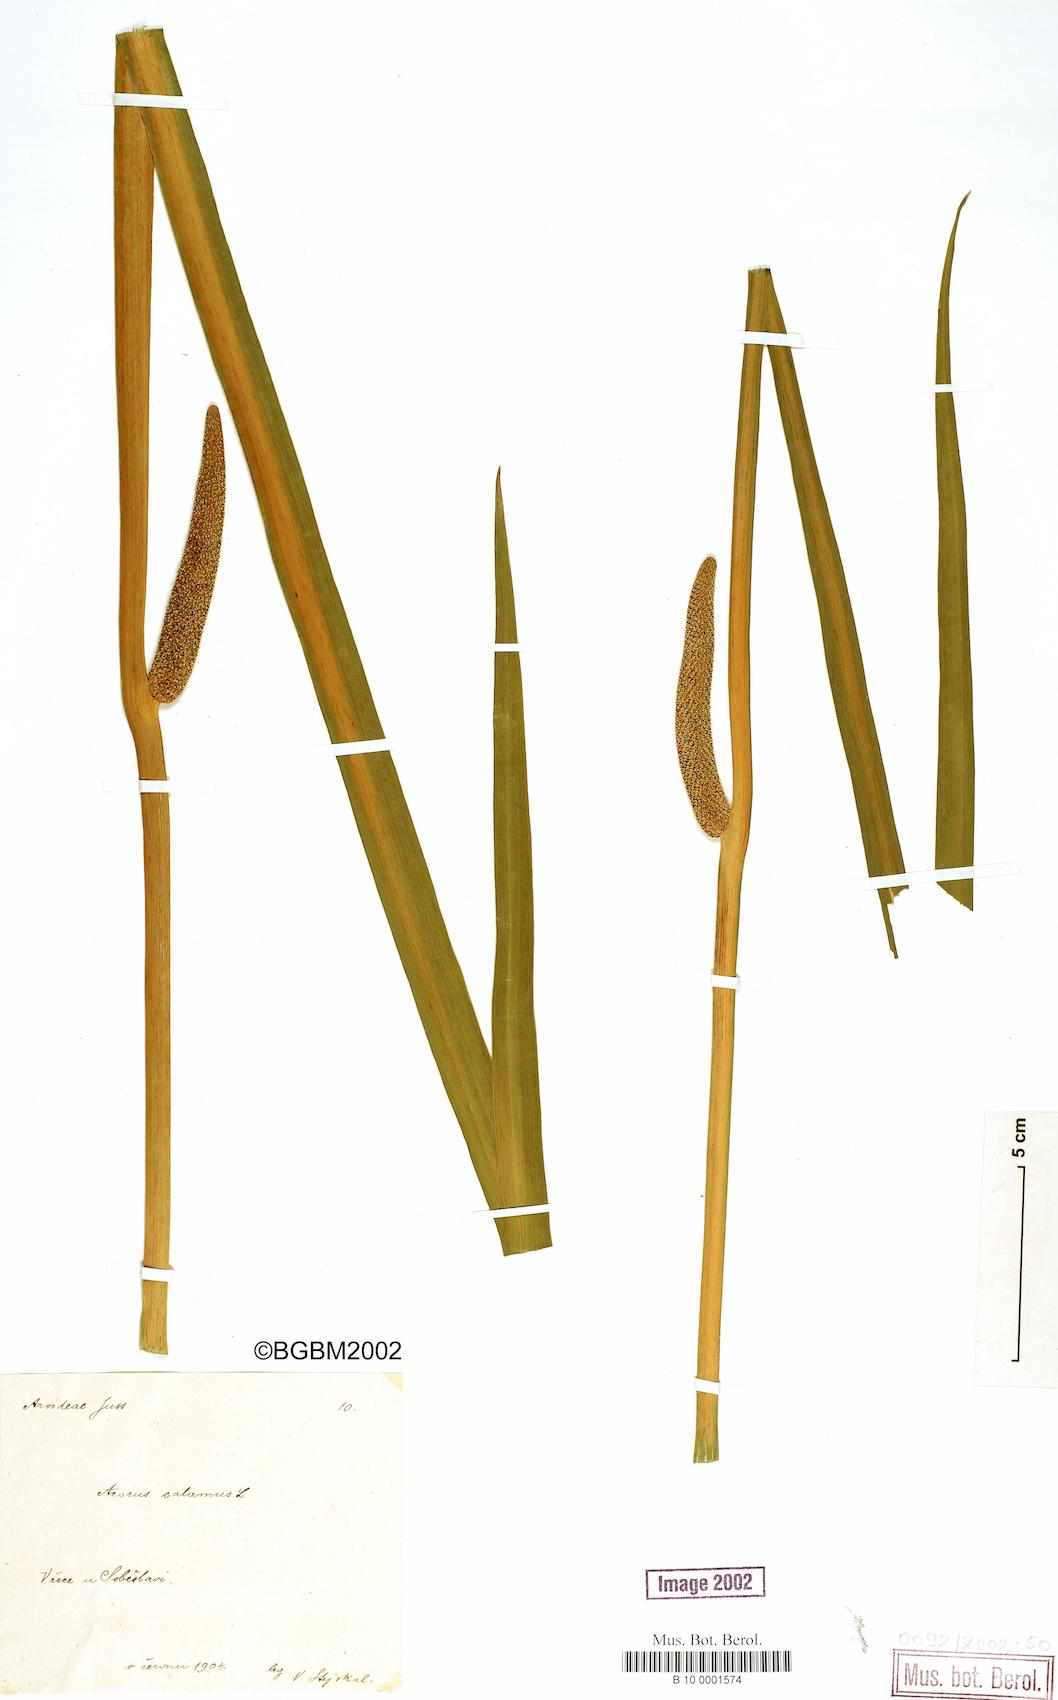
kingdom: Plantae
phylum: Tracheophyta
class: Liliopsida
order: Acorales
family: Acoraceae
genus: Acorus
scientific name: Acorus calamus
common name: Sweet-flag
